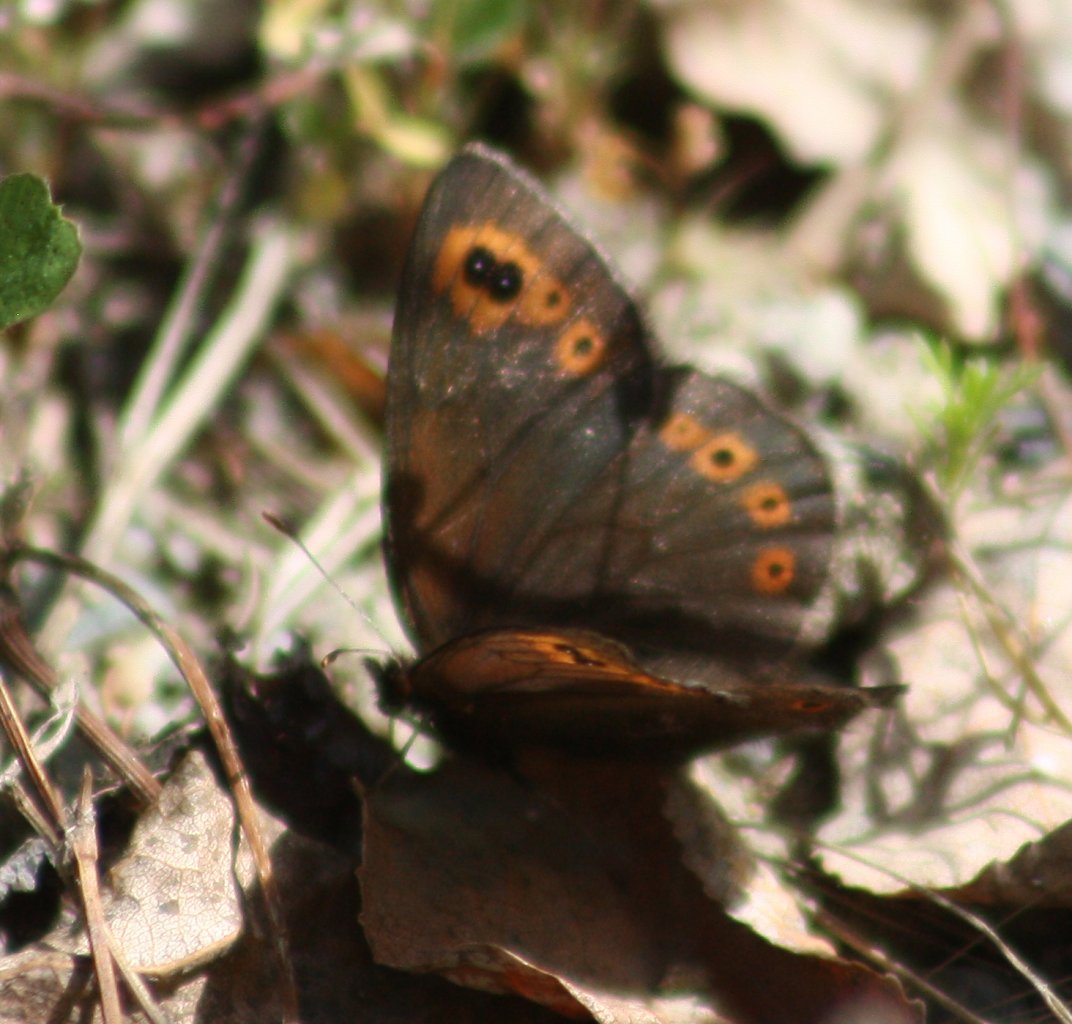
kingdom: Animalia
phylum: Arthropoda
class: Insecta
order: Lepidoptera
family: Nymphalidae
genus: Erebia
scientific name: Erebia epipsodea
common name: Common Alpine
